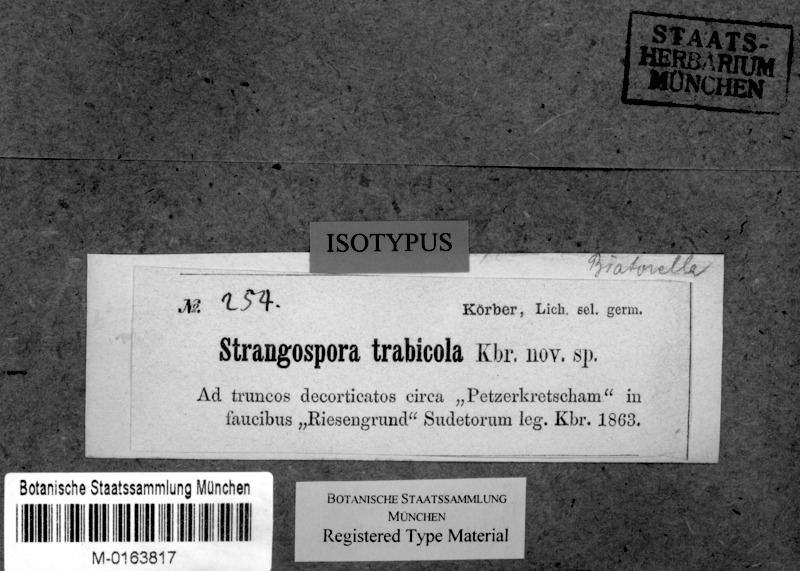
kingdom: Fungi
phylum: Ascomycota
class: Lecanoromycetes
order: Lecanorales
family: Strangosporaceae
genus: Strangospora
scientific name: Strangospora moriformis
